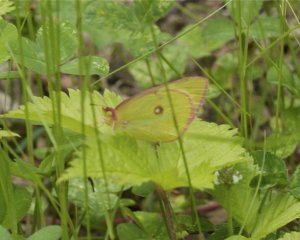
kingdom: Animalia
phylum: Arthropoda
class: Insecta
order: Lepidoptera
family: Pieridae
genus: Colias
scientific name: Colias interior
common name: Pink-edged Sulphur
